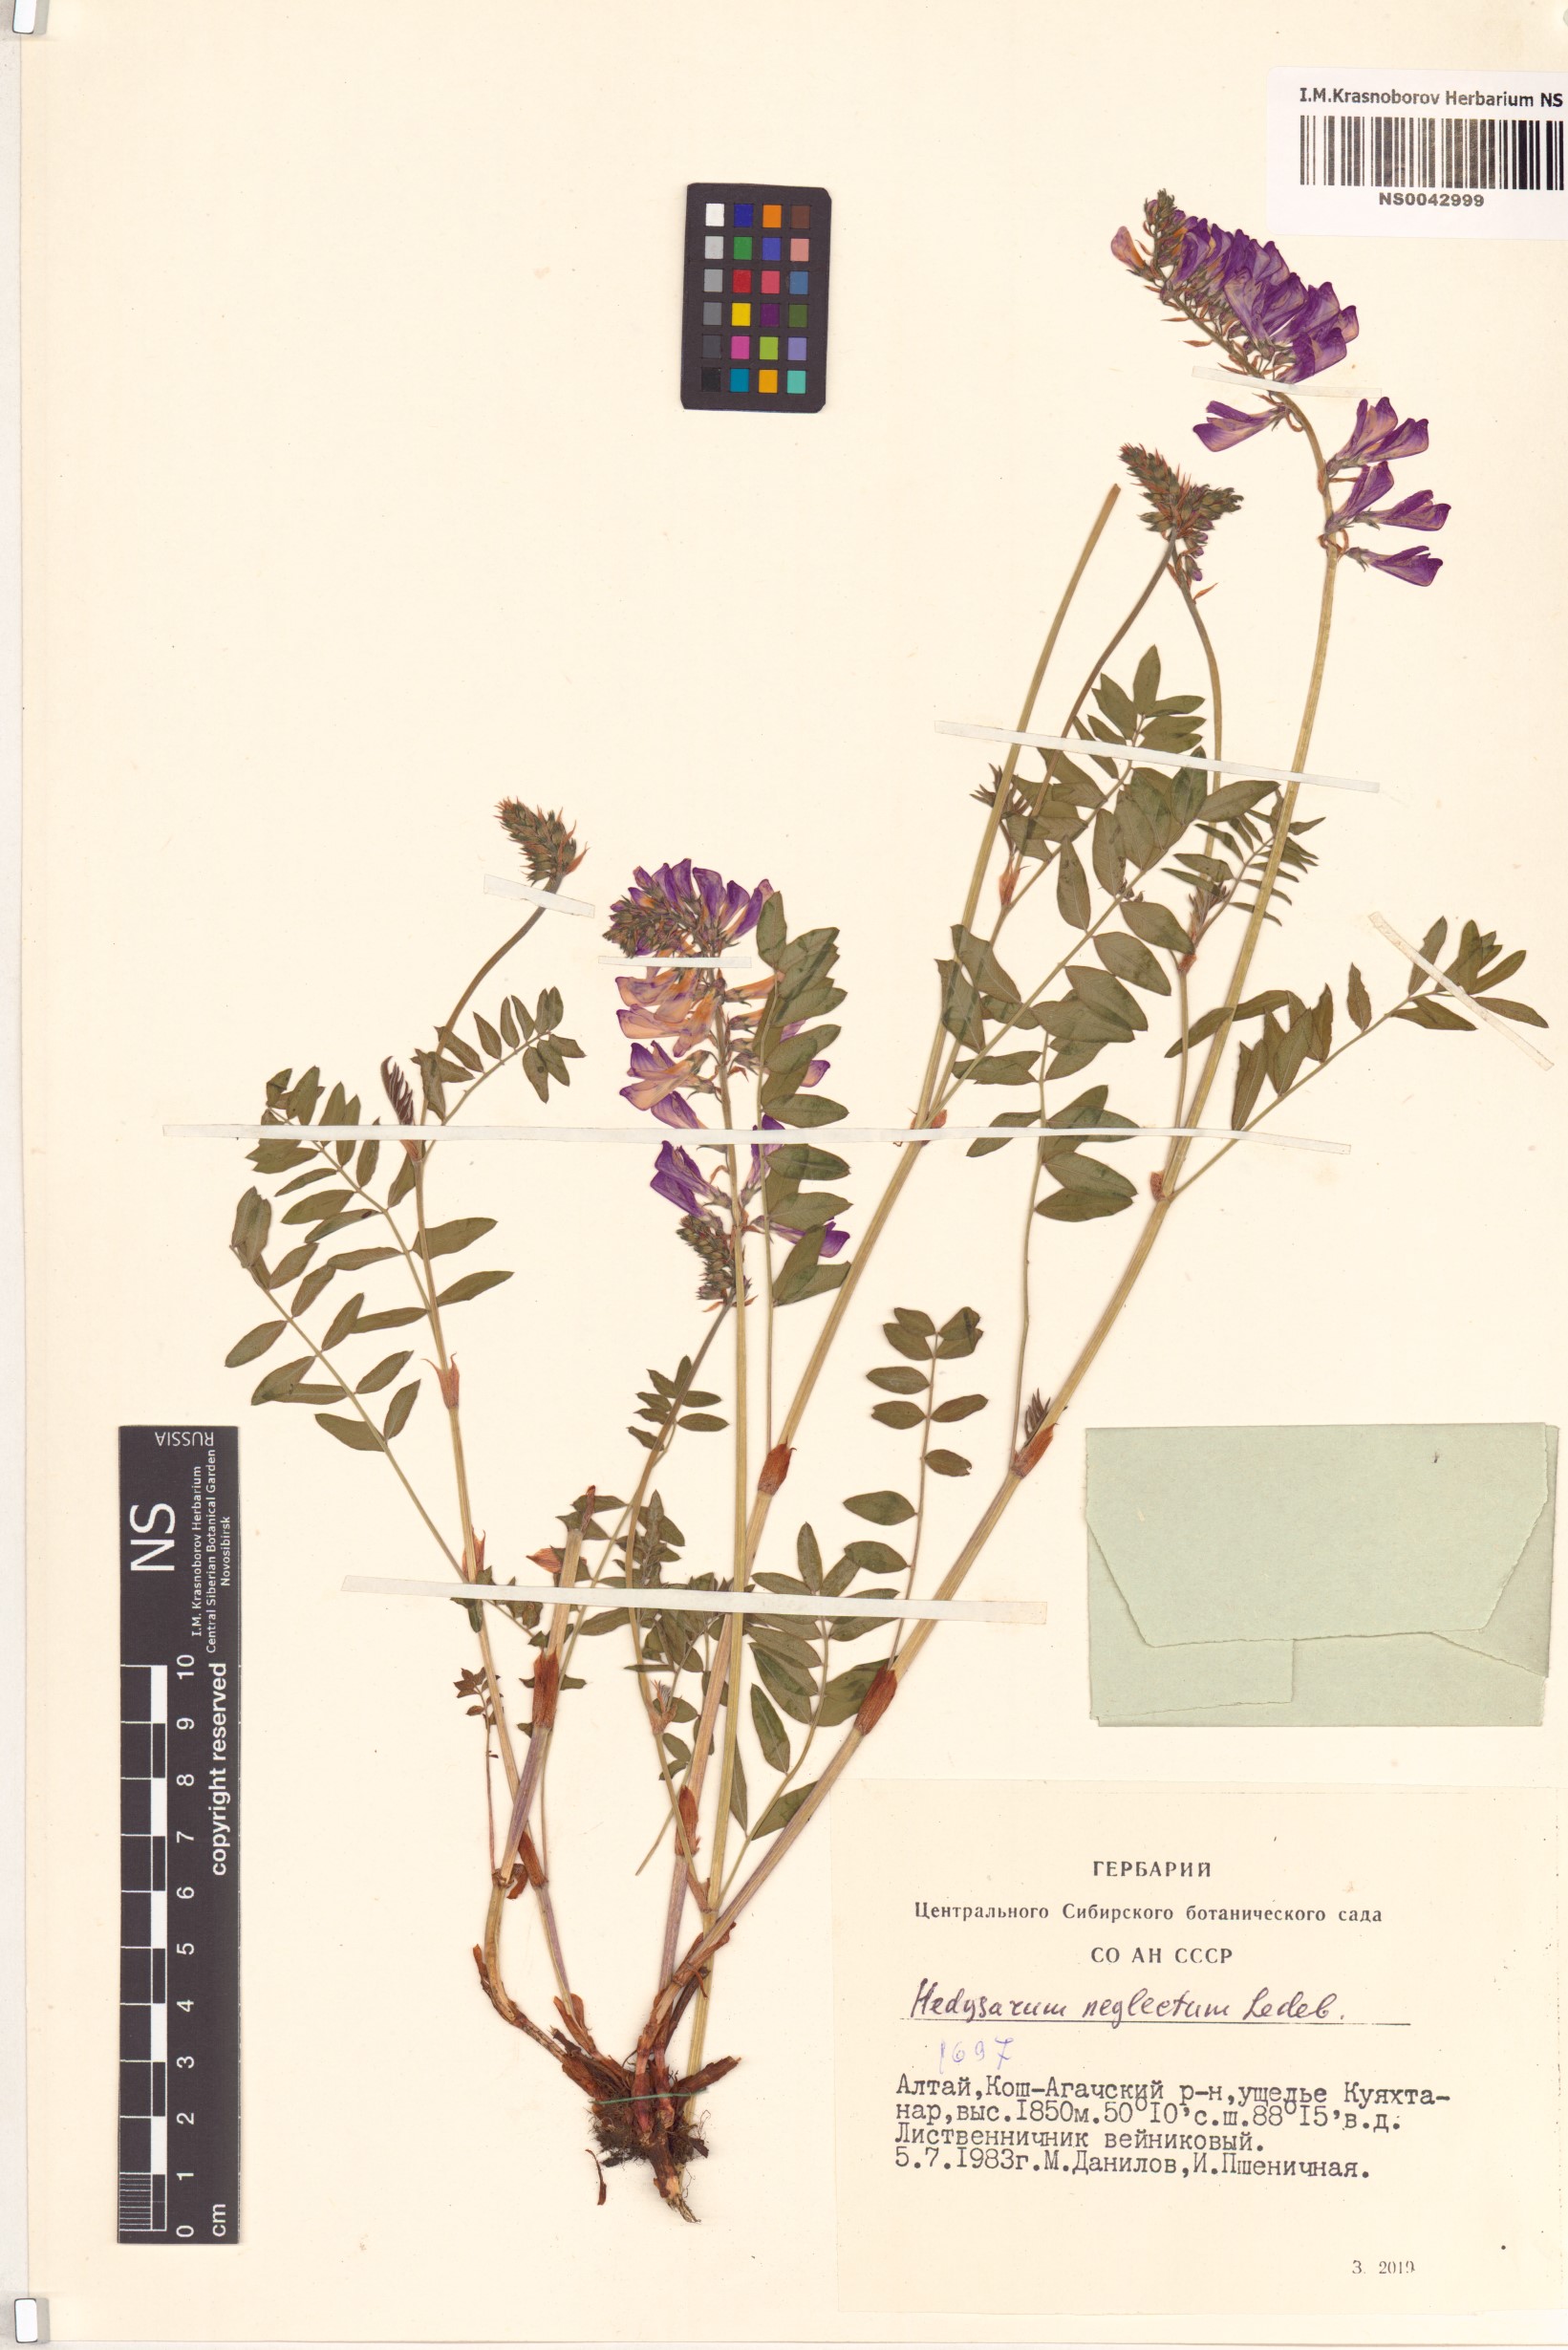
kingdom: Plantae
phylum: Tracheophyta
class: Magnoliopsida
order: Fabales
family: Fabaceae
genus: Hedysarum
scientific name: Hedysarum neglectum
